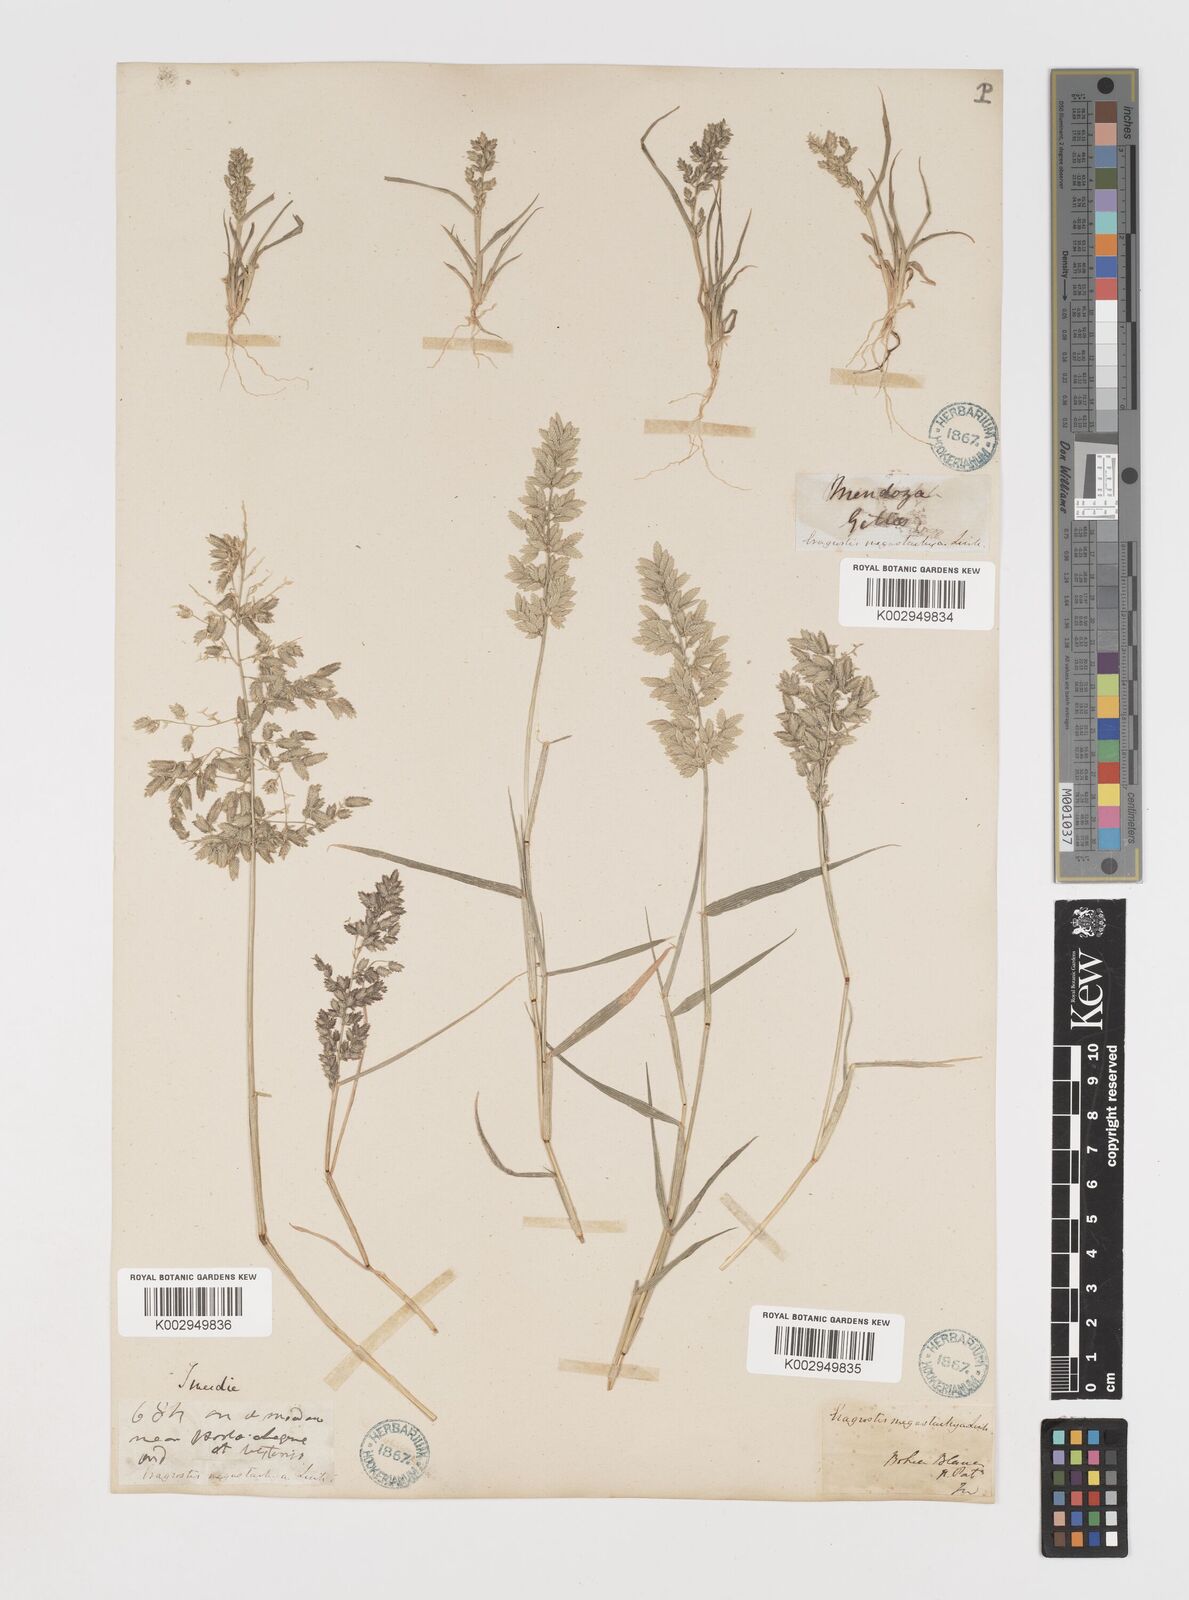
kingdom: Plantae
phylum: Tracheophyta
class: Liliopsida
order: Poales
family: Poaceae
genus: Eragrostis
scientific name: Eragrostis cilianensis
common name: Stinkgrass
